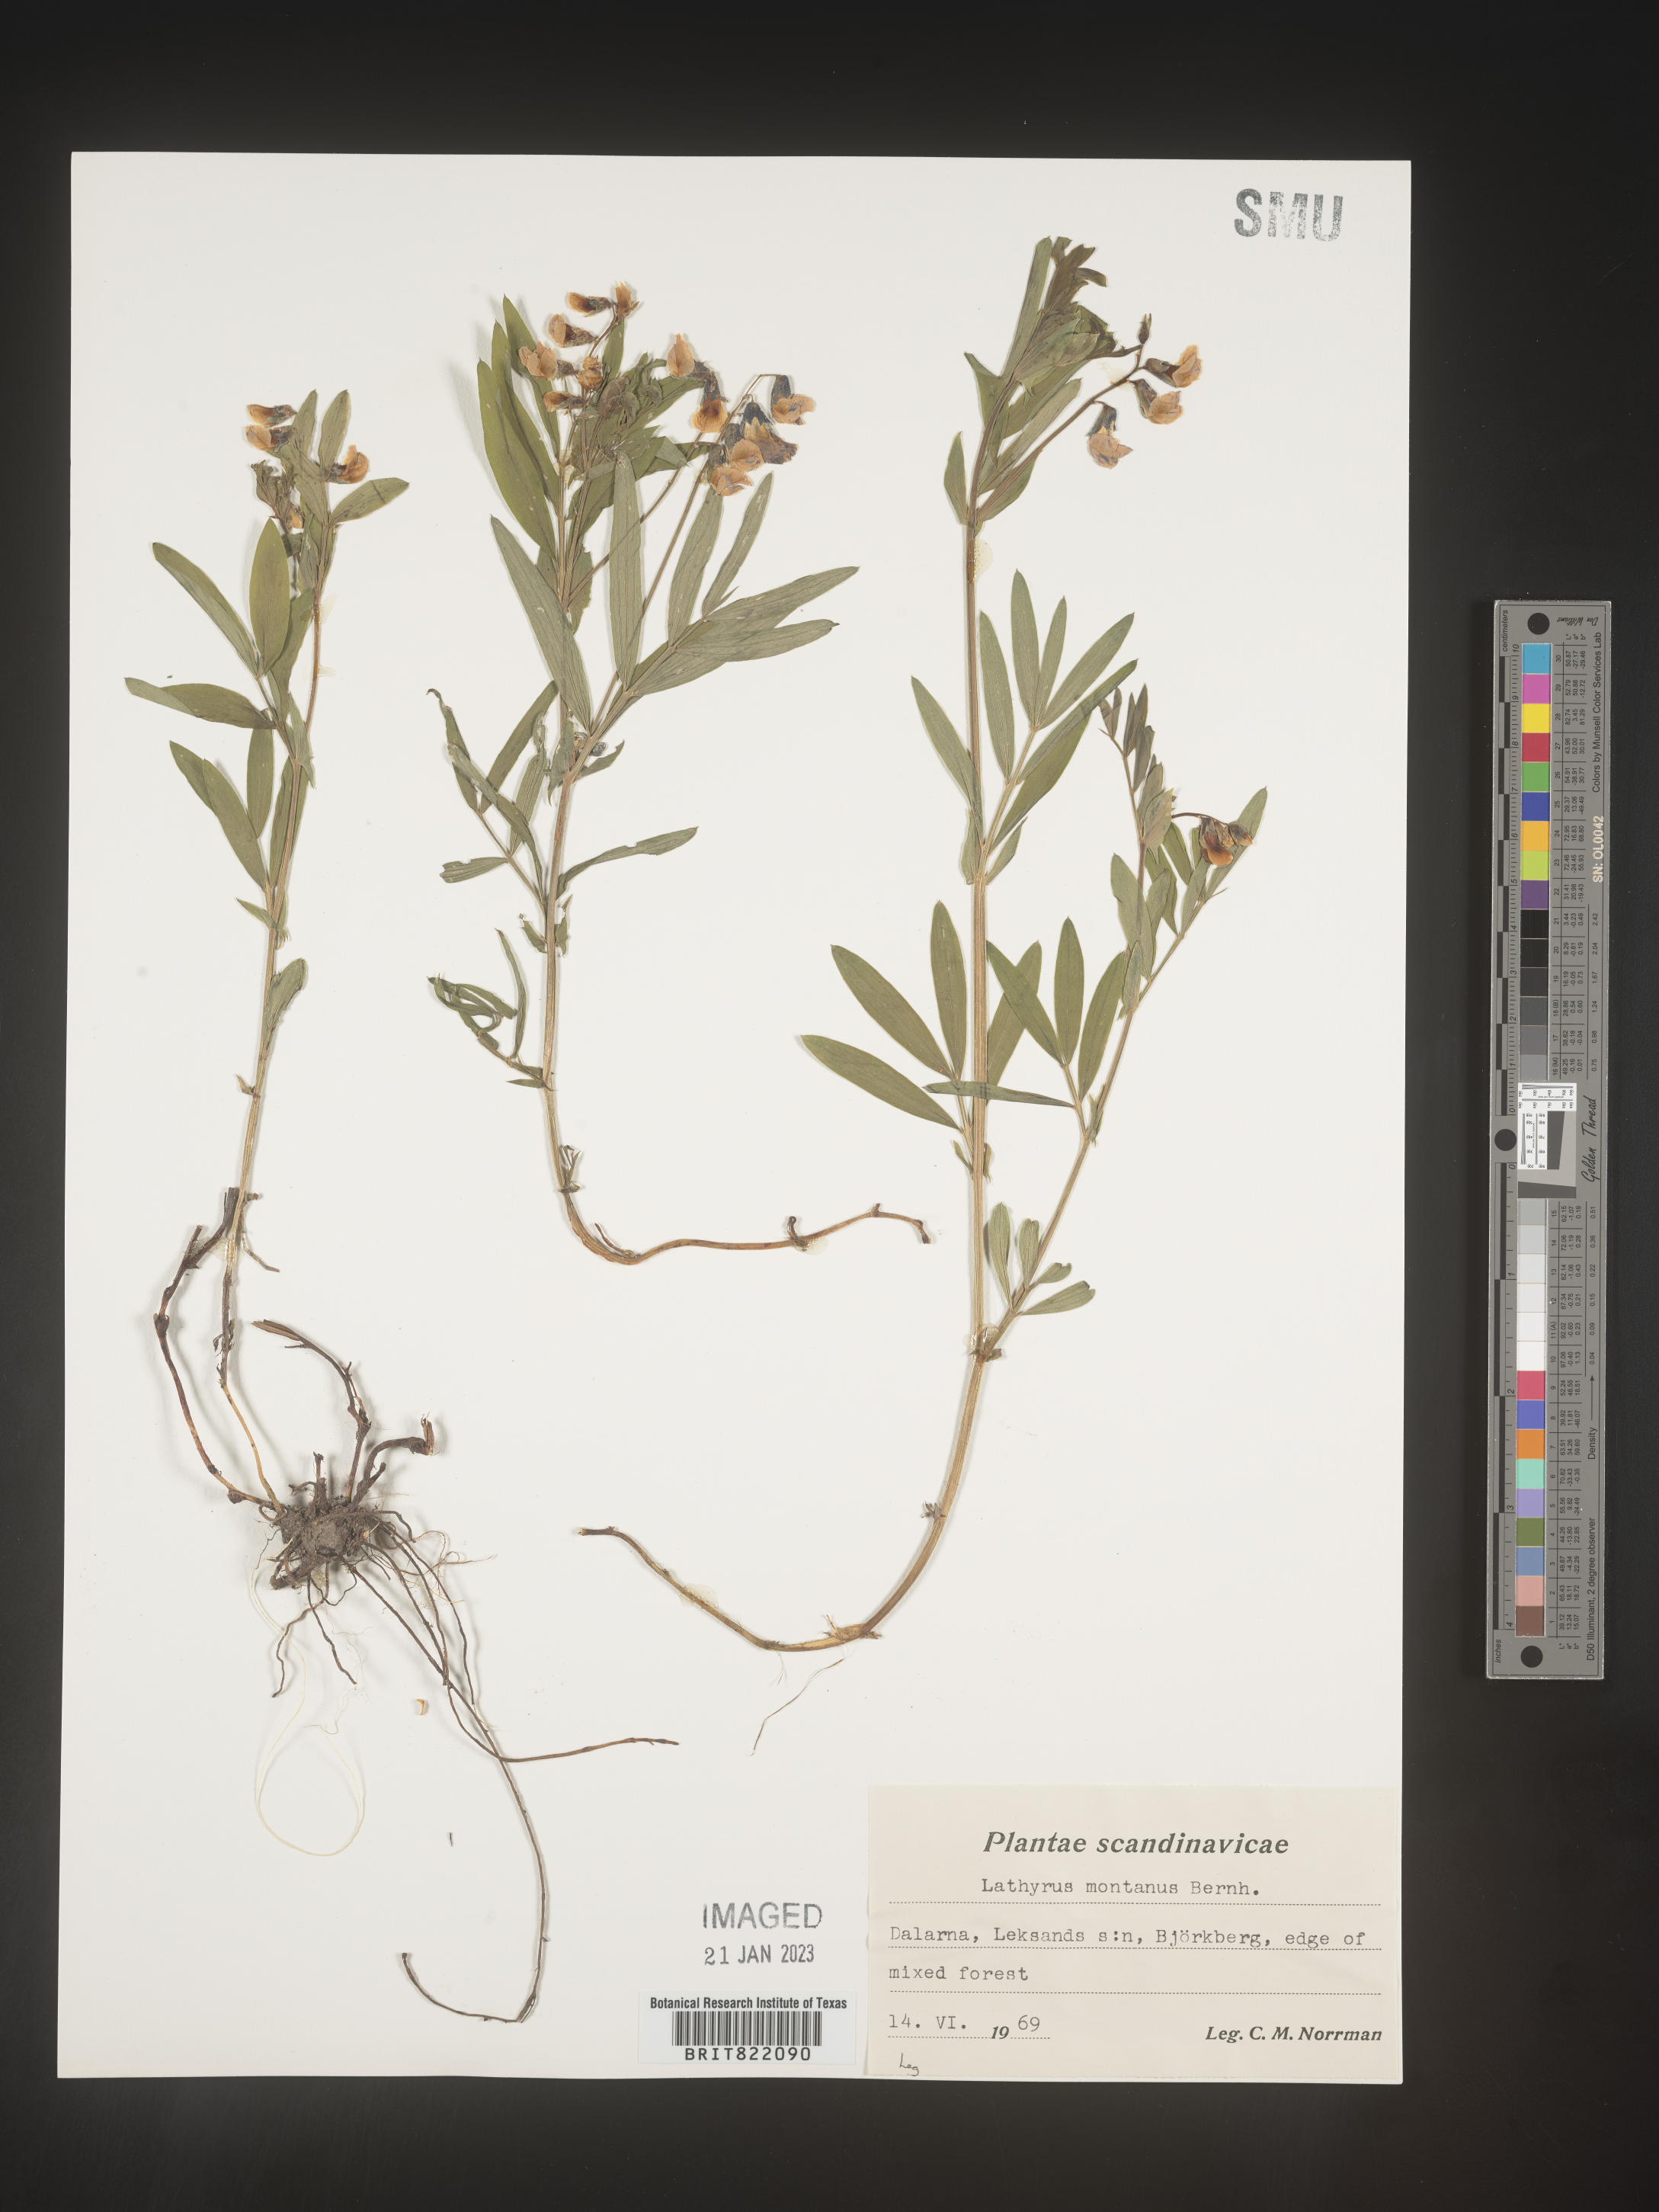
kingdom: Plantae
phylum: Tracheophyta
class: Magnoliopsida
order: Fabales
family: Fabaceae
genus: Lathyrus
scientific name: Lathyrus
